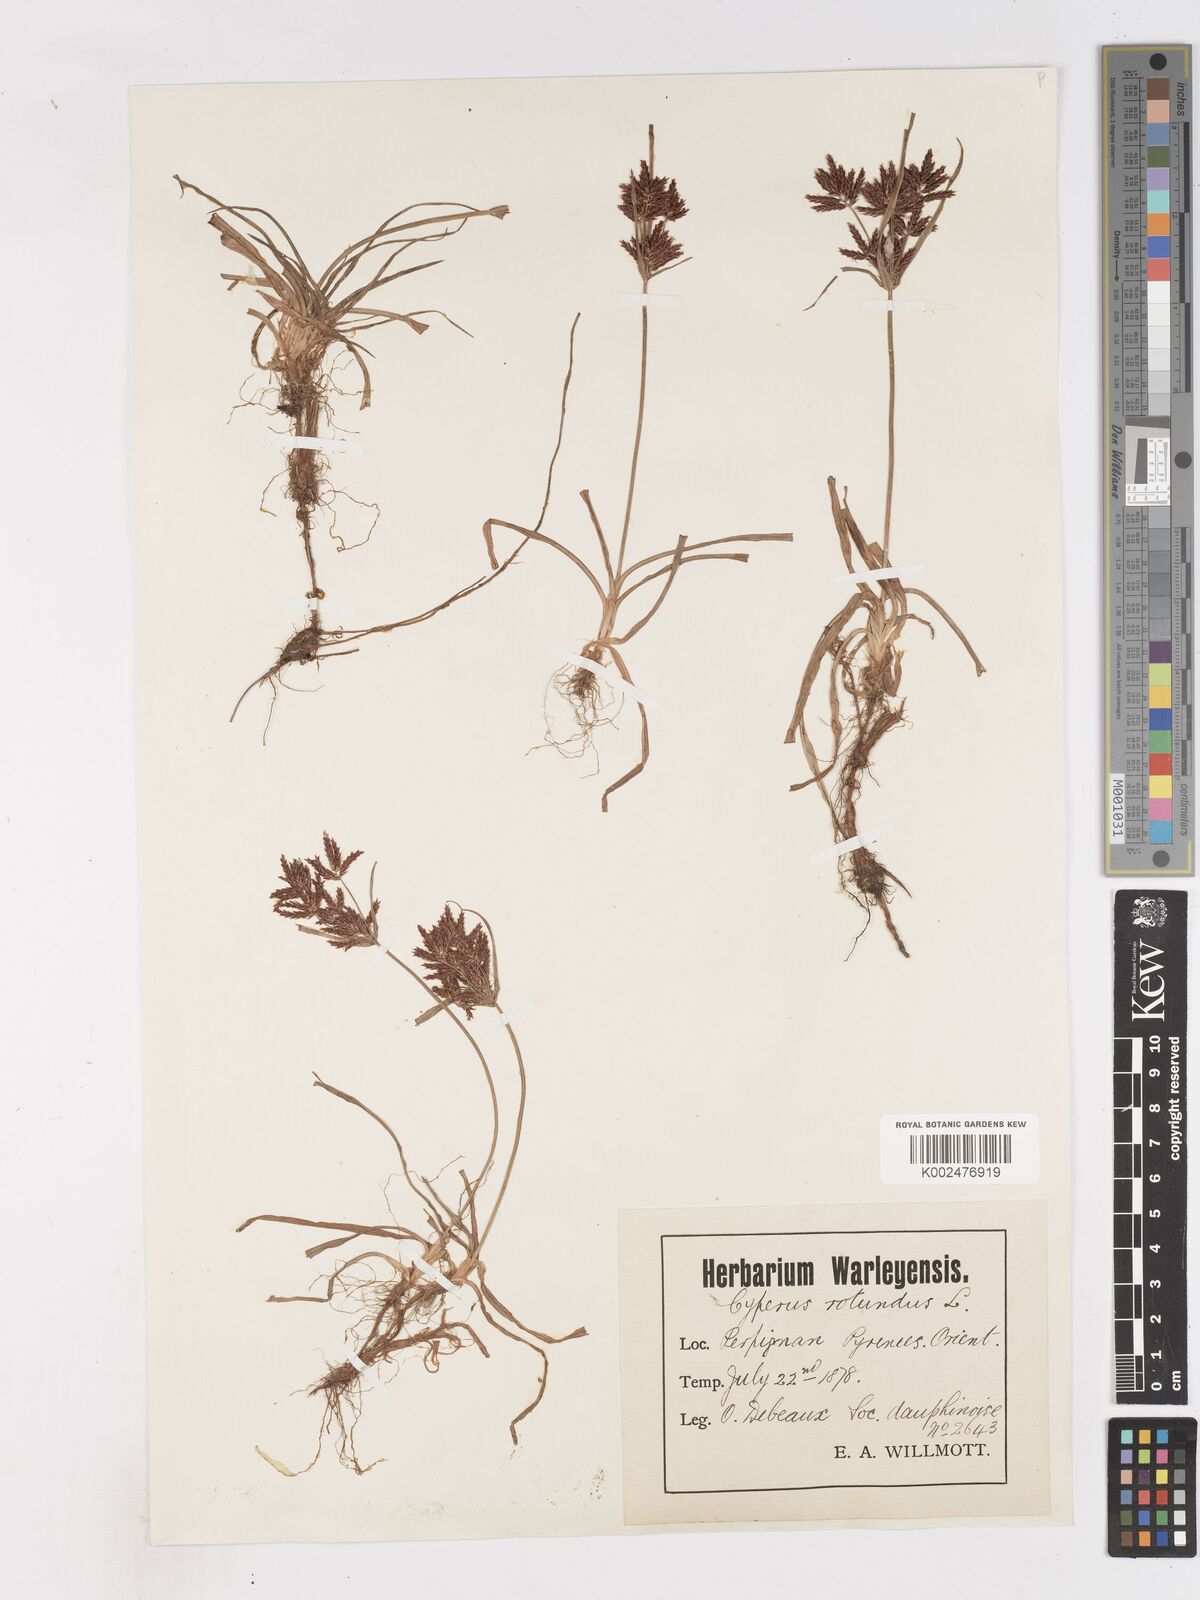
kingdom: Plantae
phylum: Tracheophyta
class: Liliopsida
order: Poales
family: Cyperaceae
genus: Cyperus
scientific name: Cyperus rotundus
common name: Nutgrass
